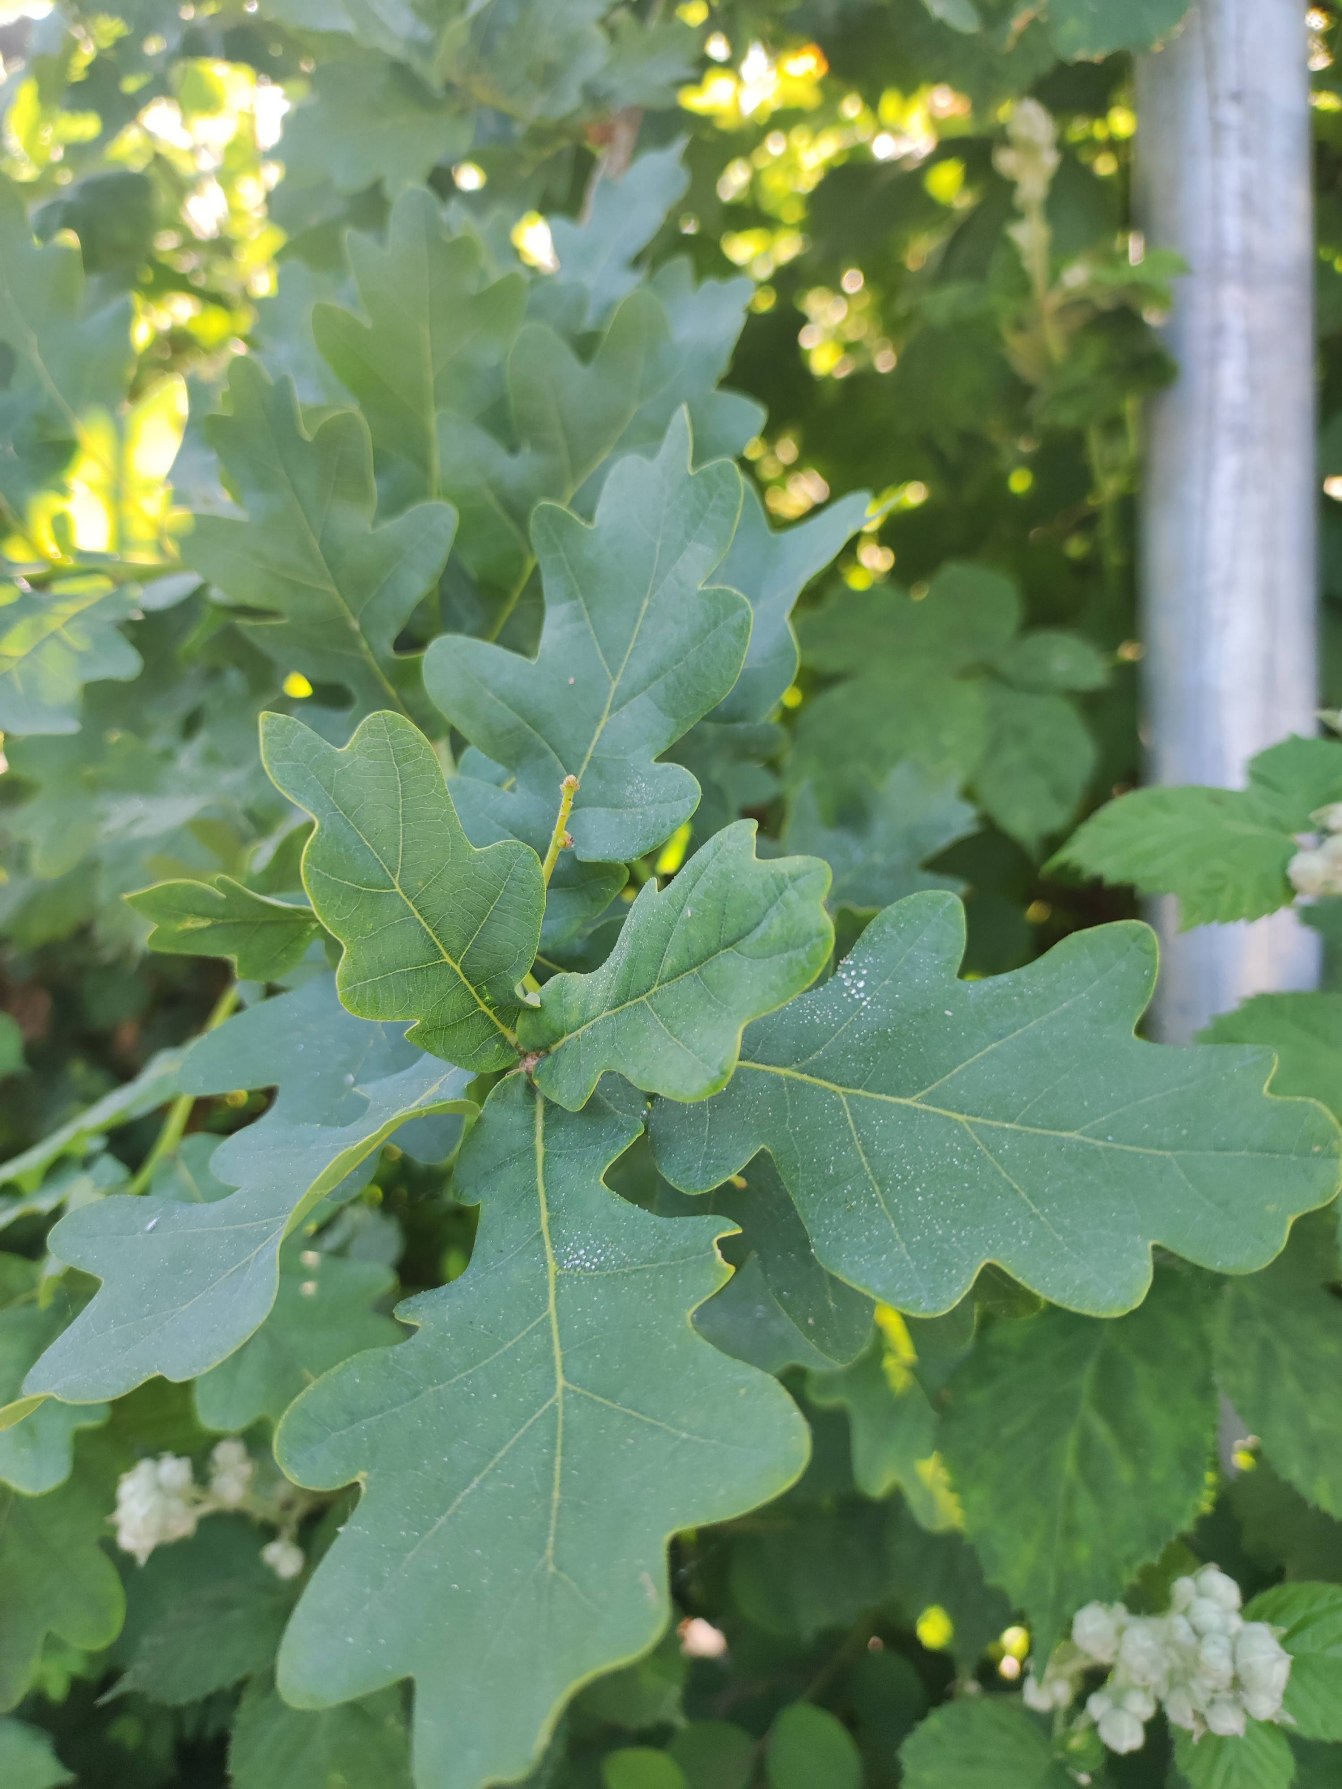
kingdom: Plantae
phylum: Tracheophyta
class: Magnoliopsida
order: Fagales
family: Fagaceae
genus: Quercus
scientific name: Quercus robur
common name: Stilk-eg/almindelig eg
